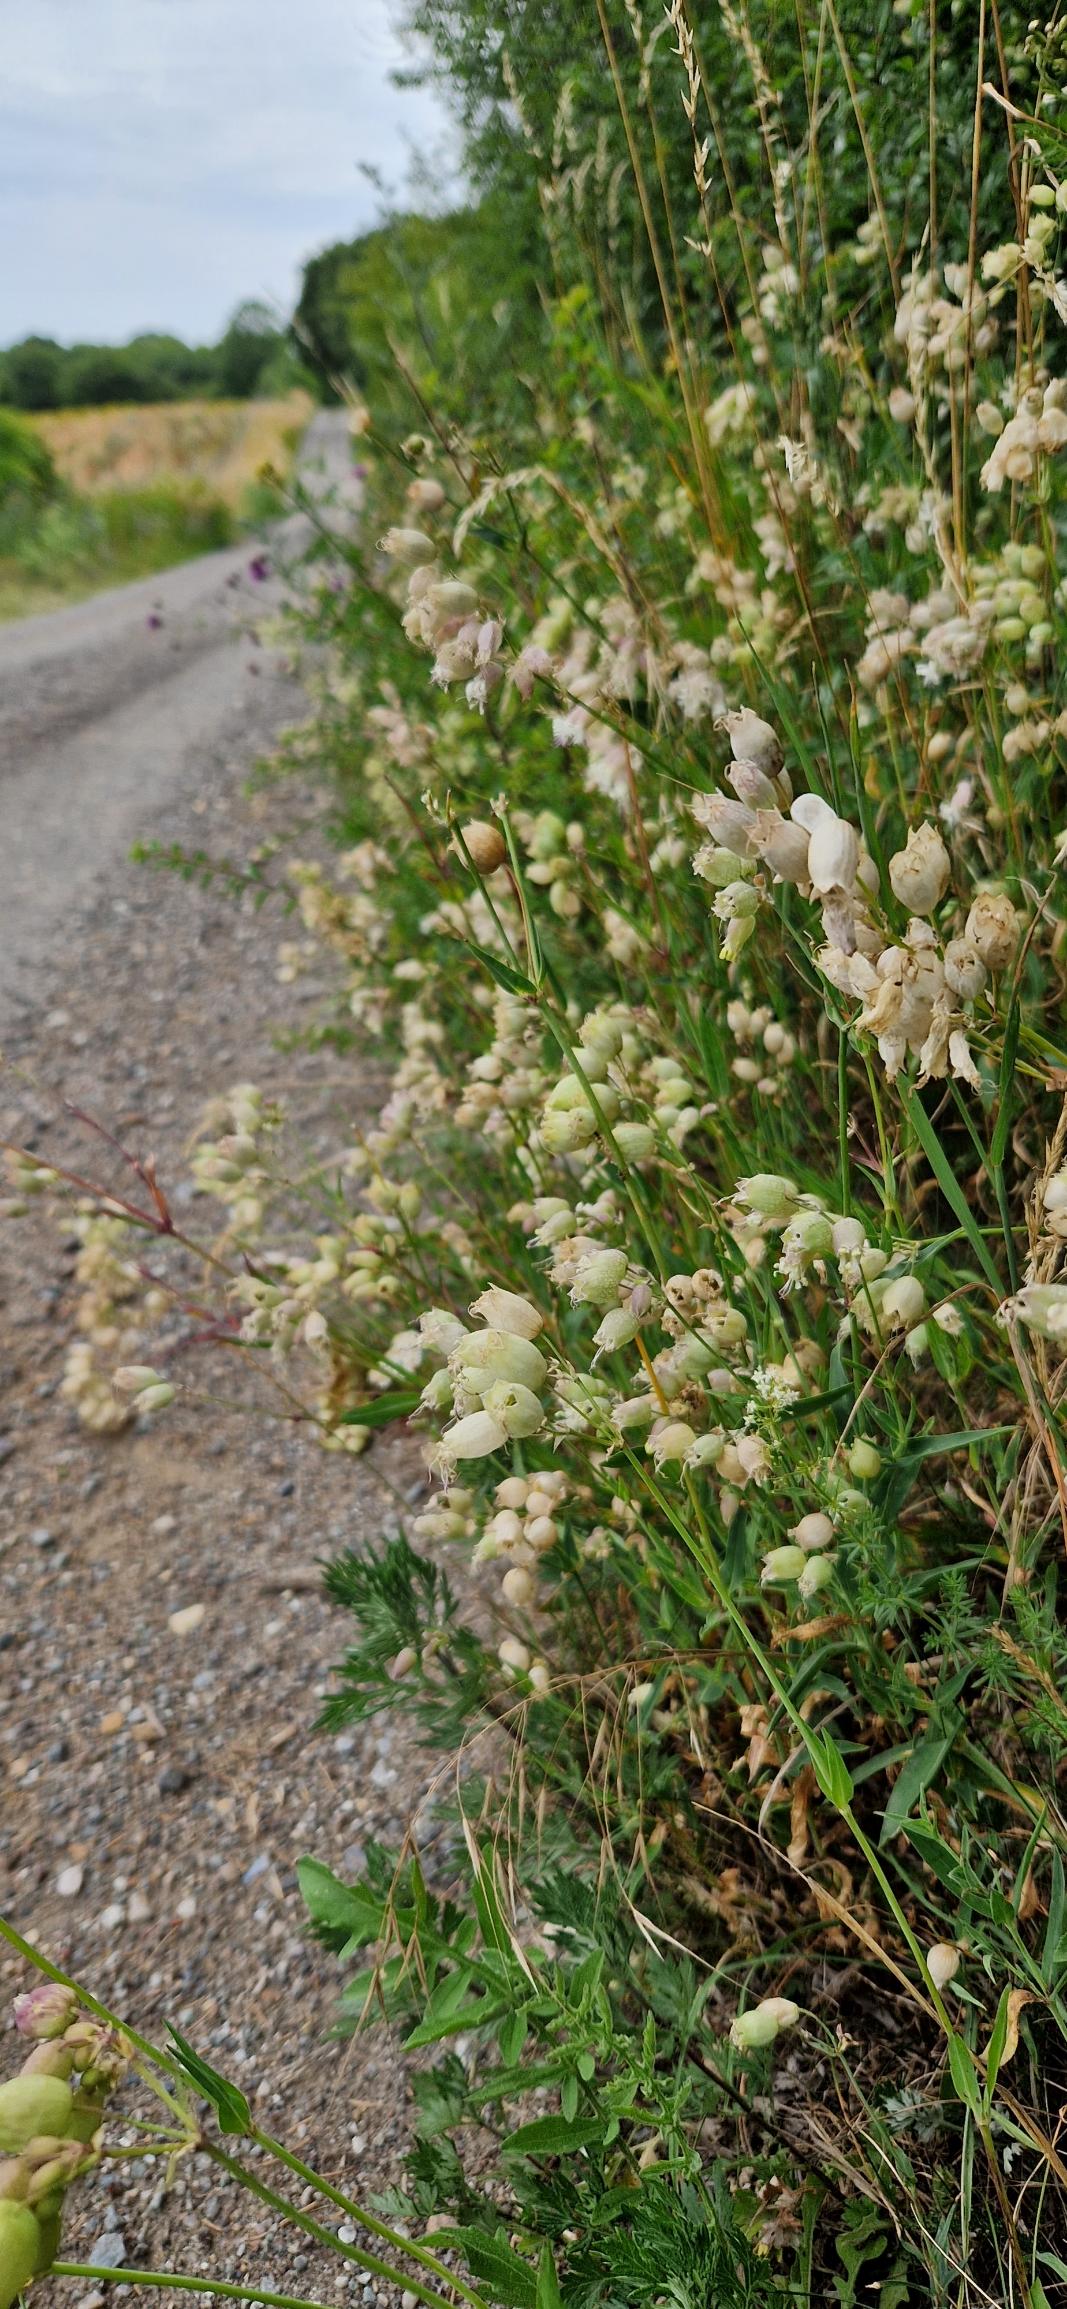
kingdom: Plantae
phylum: Tracheophyta
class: Magnoliopsida
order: Caryophyllales
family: Caryophyllaceae
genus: Silene
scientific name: Silene vulgaris
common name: Blæresmælde
